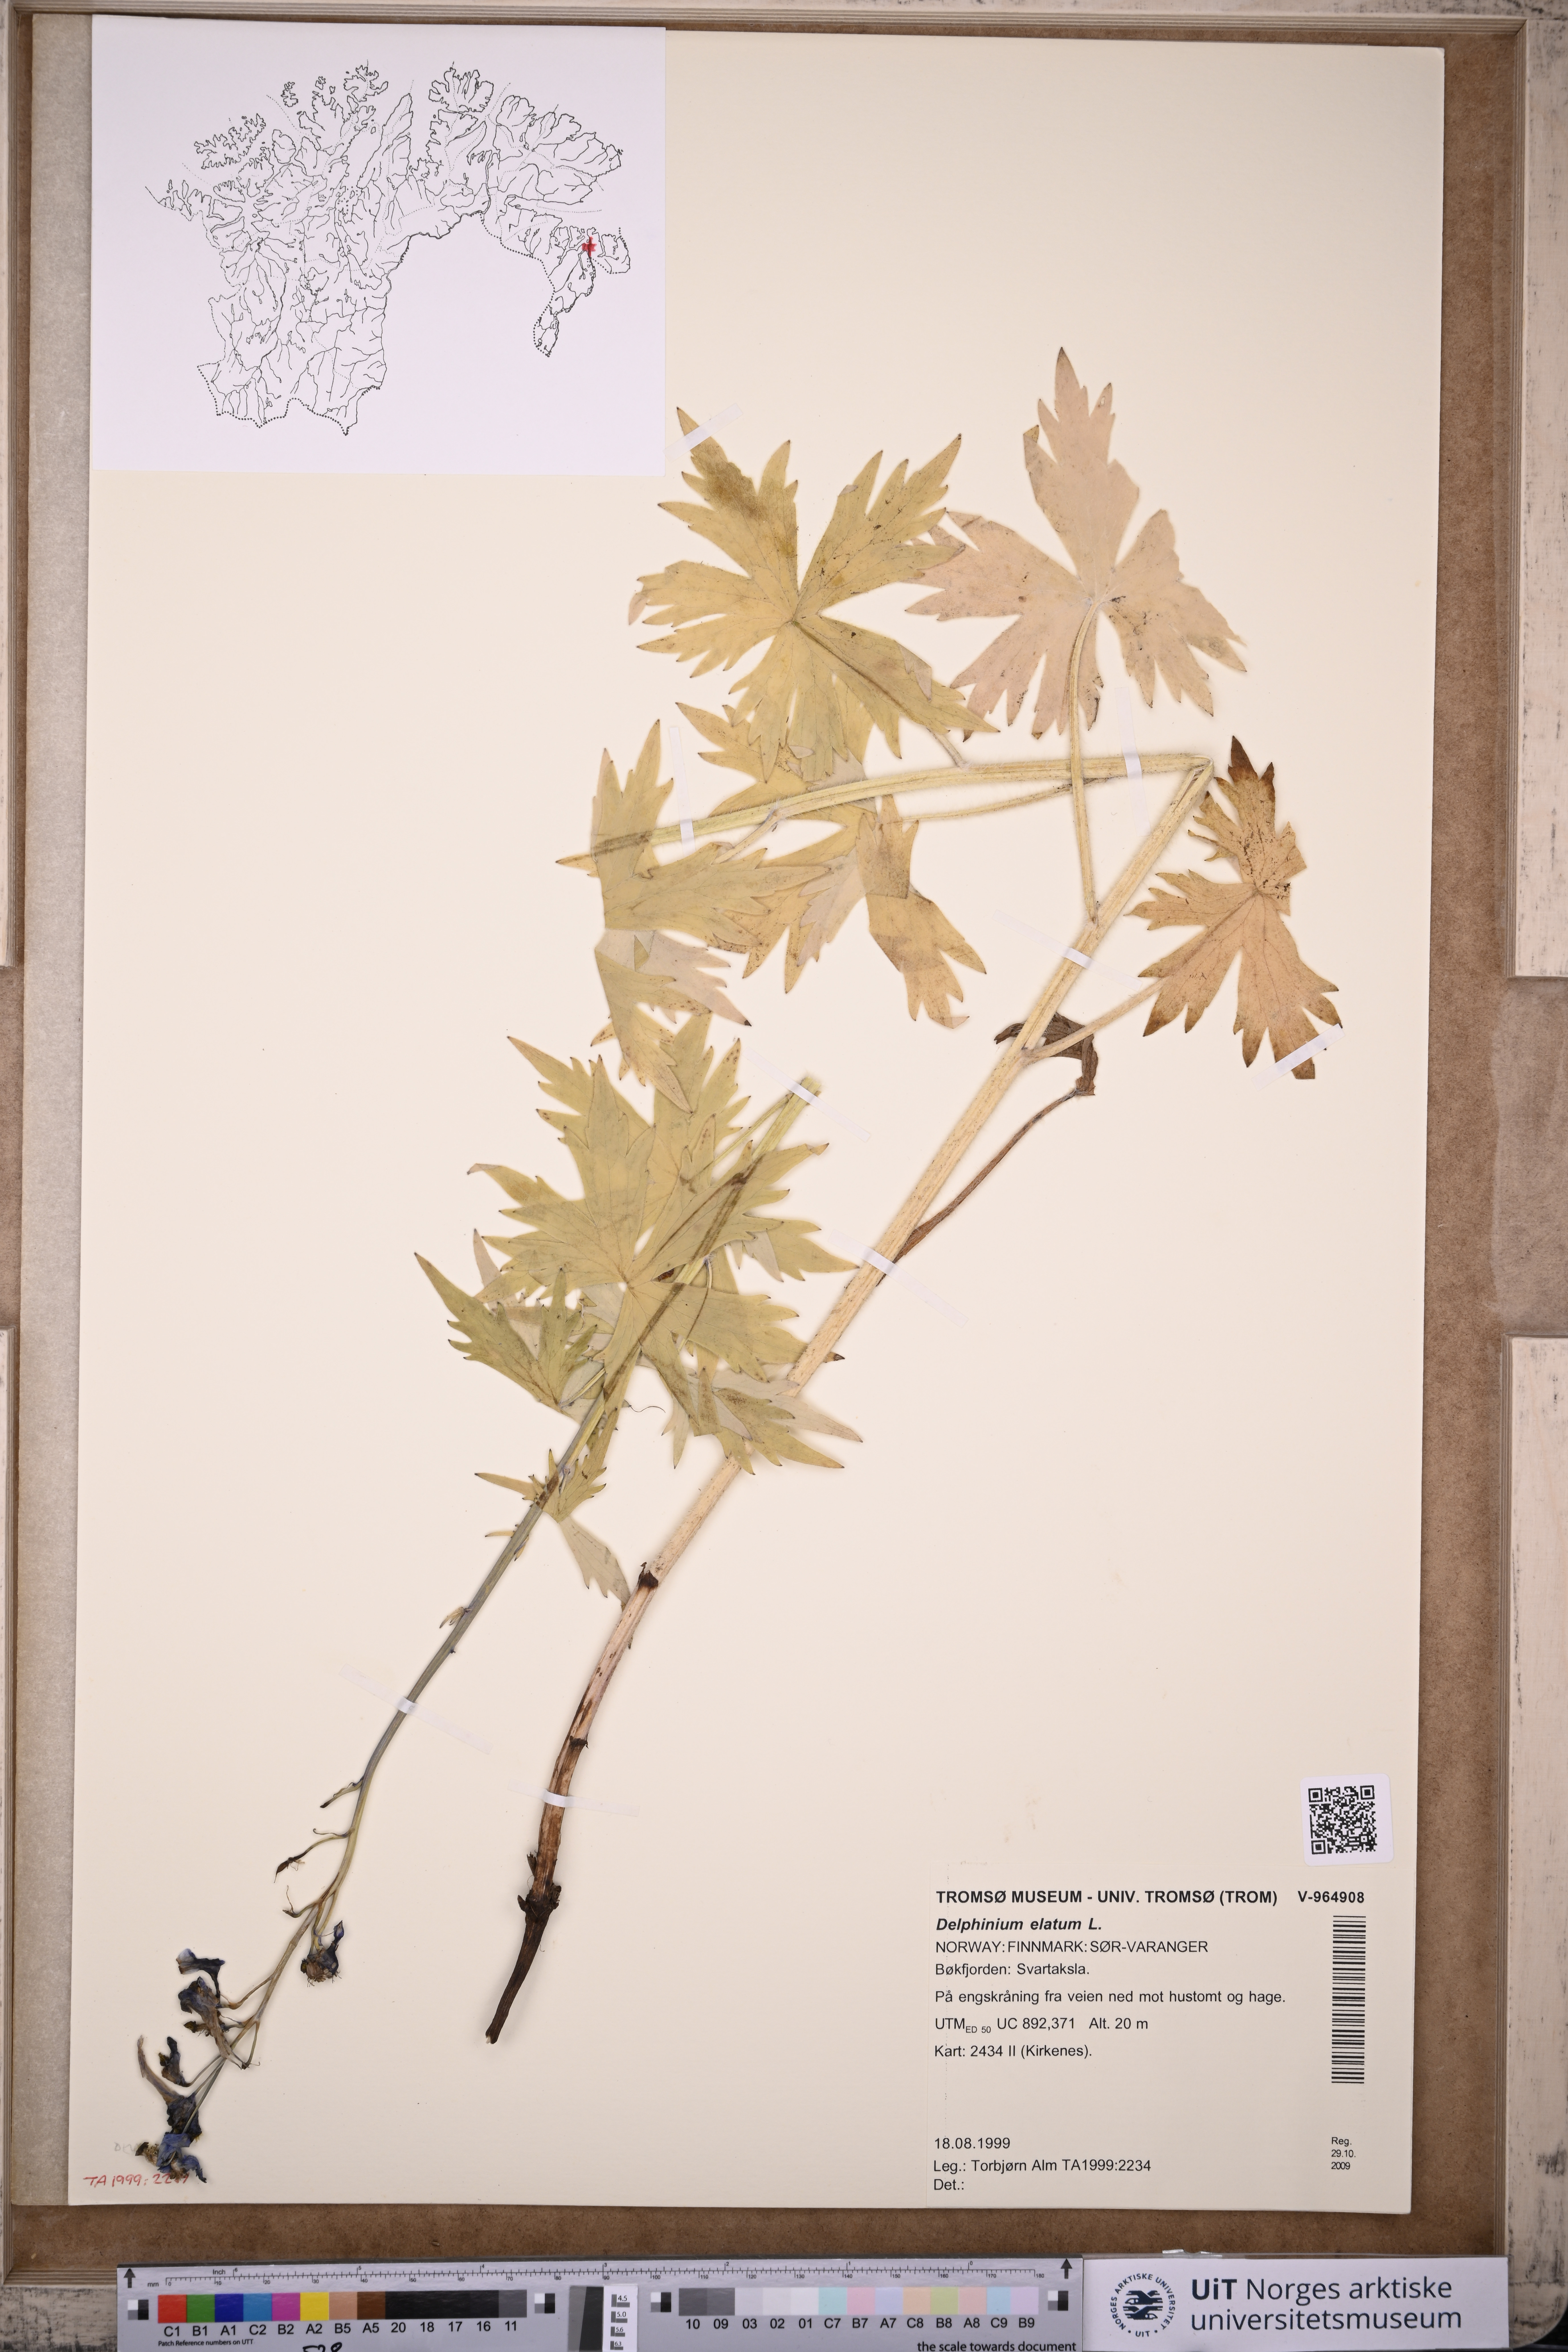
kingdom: Plantae
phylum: Tracheophyta
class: Magnoliopsida
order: Ranunculales
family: Ranunculaceae
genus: Delphinium
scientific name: Delphinium elatum
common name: Candle larkspur
